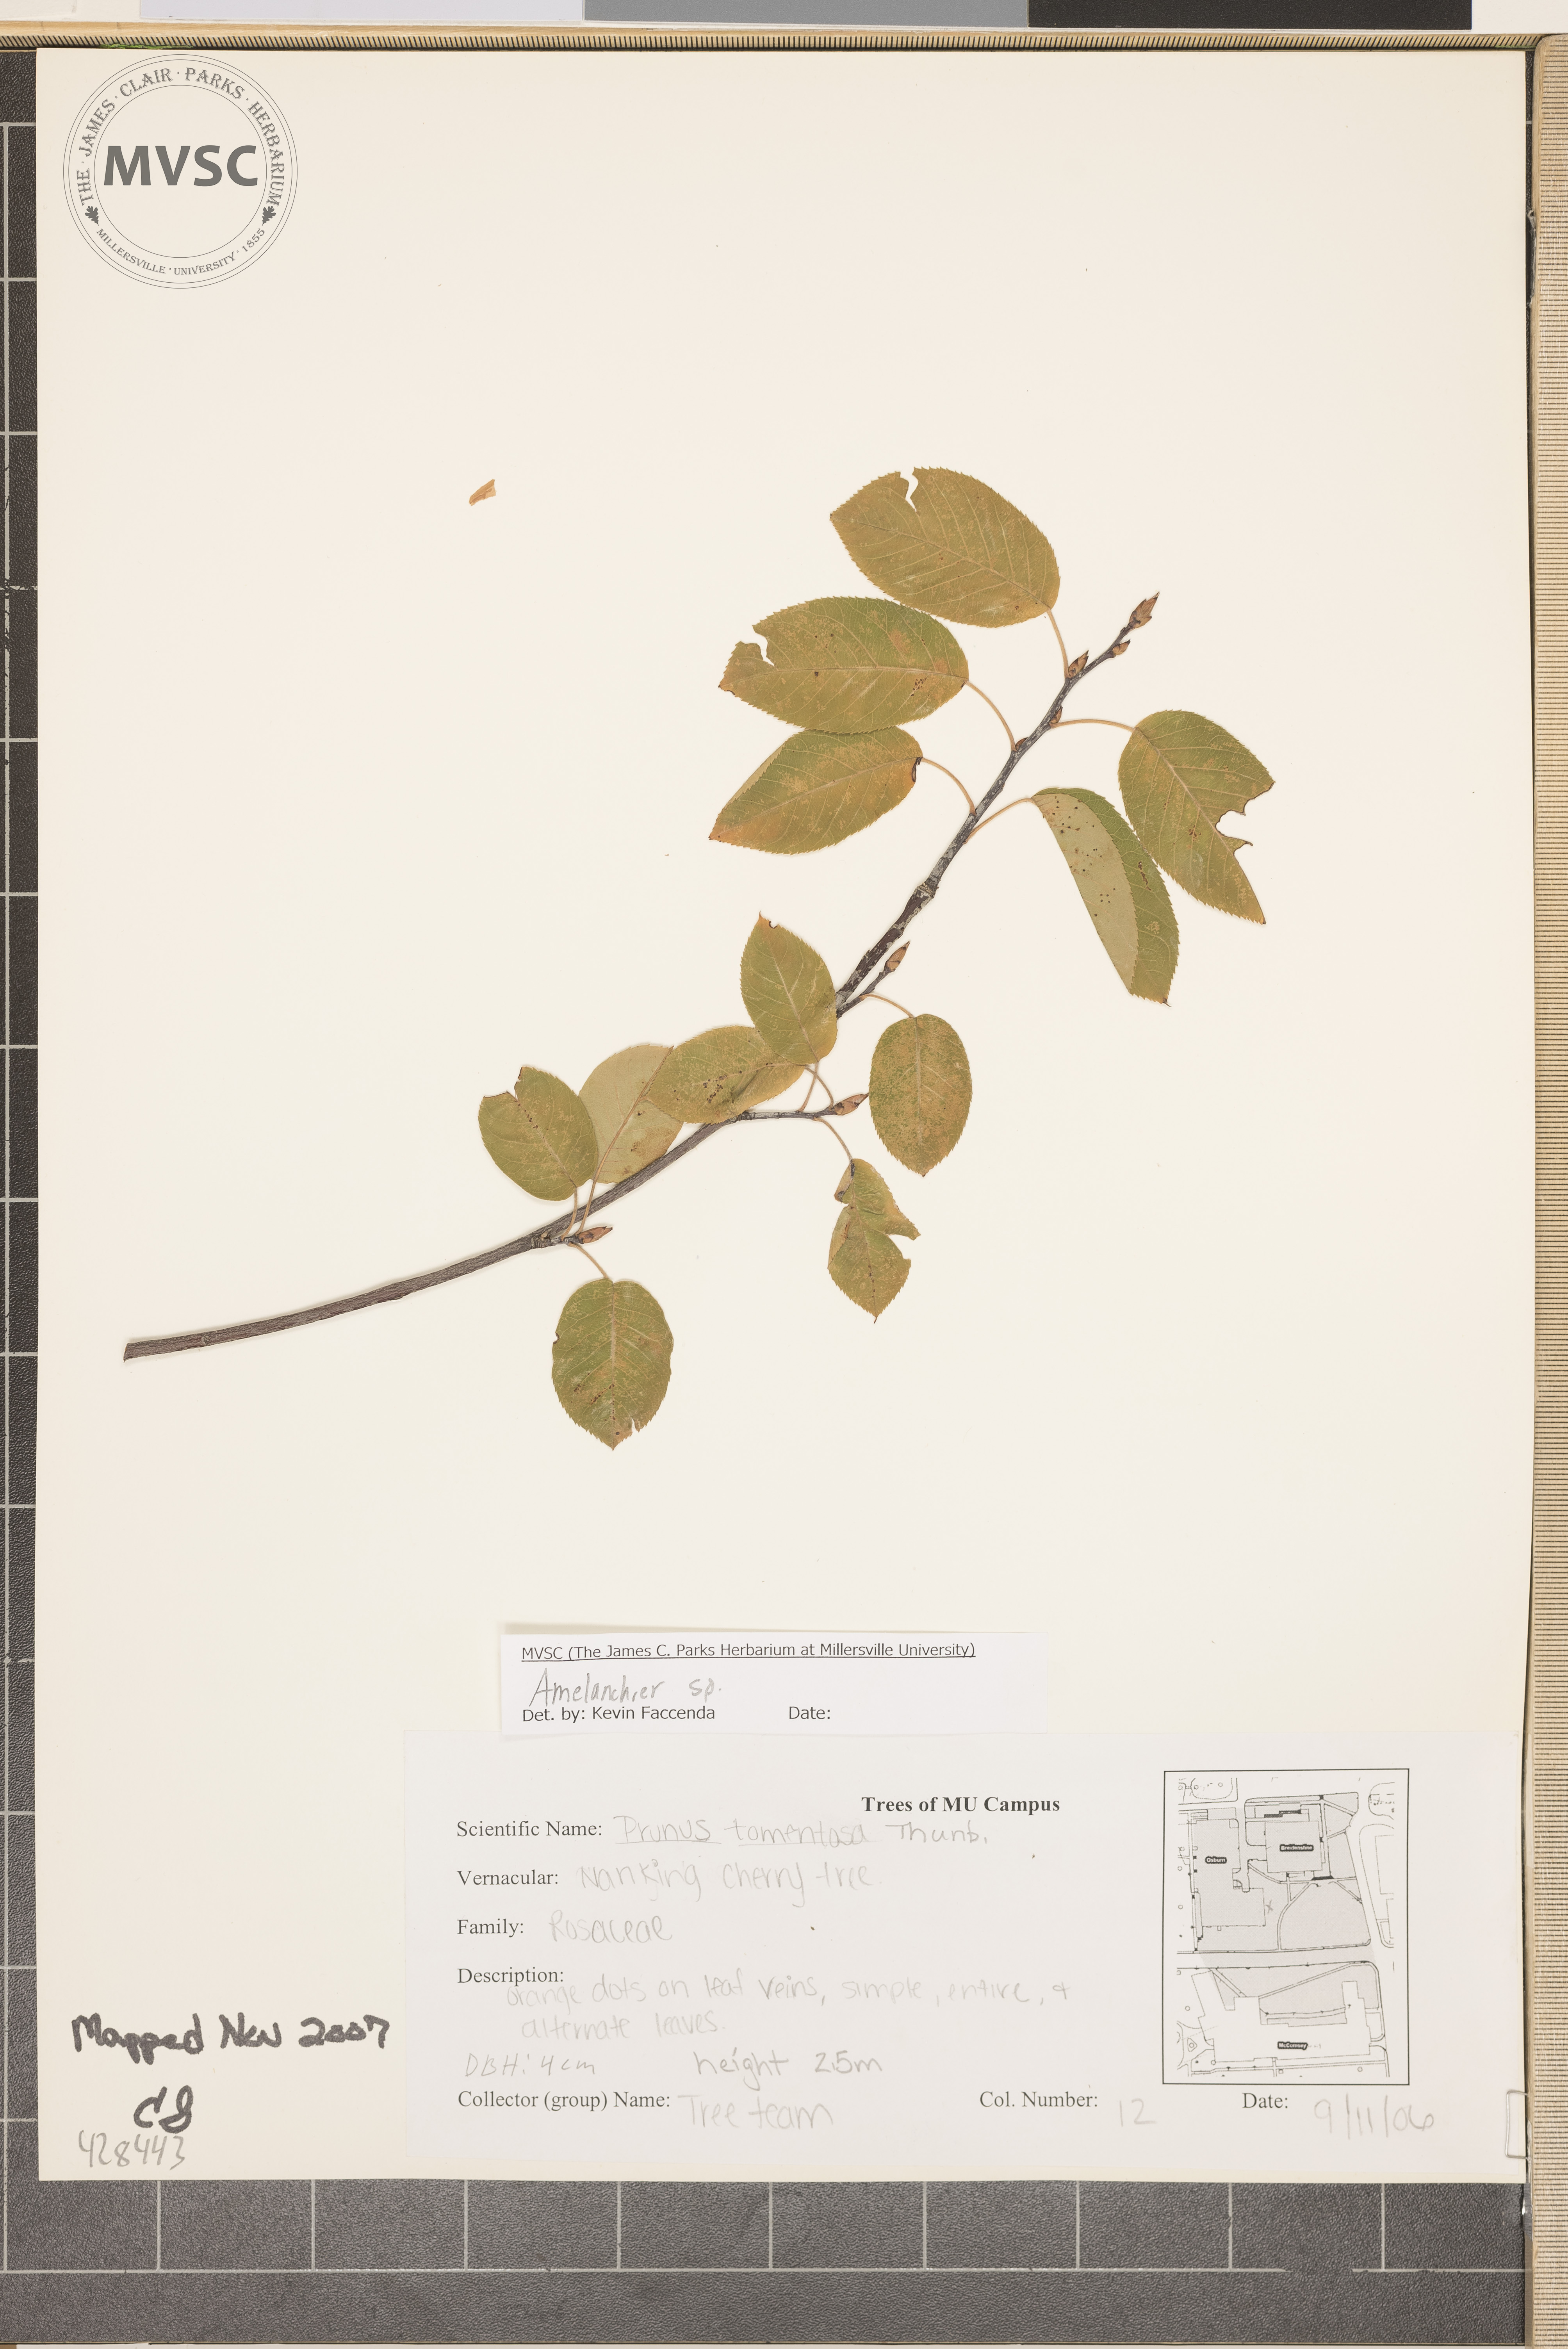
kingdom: Plantae
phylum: Tracheophyta
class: Magnoliopsida
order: Rosales
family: Rosaceae
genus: Amelanchier
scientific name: Amelanchier
